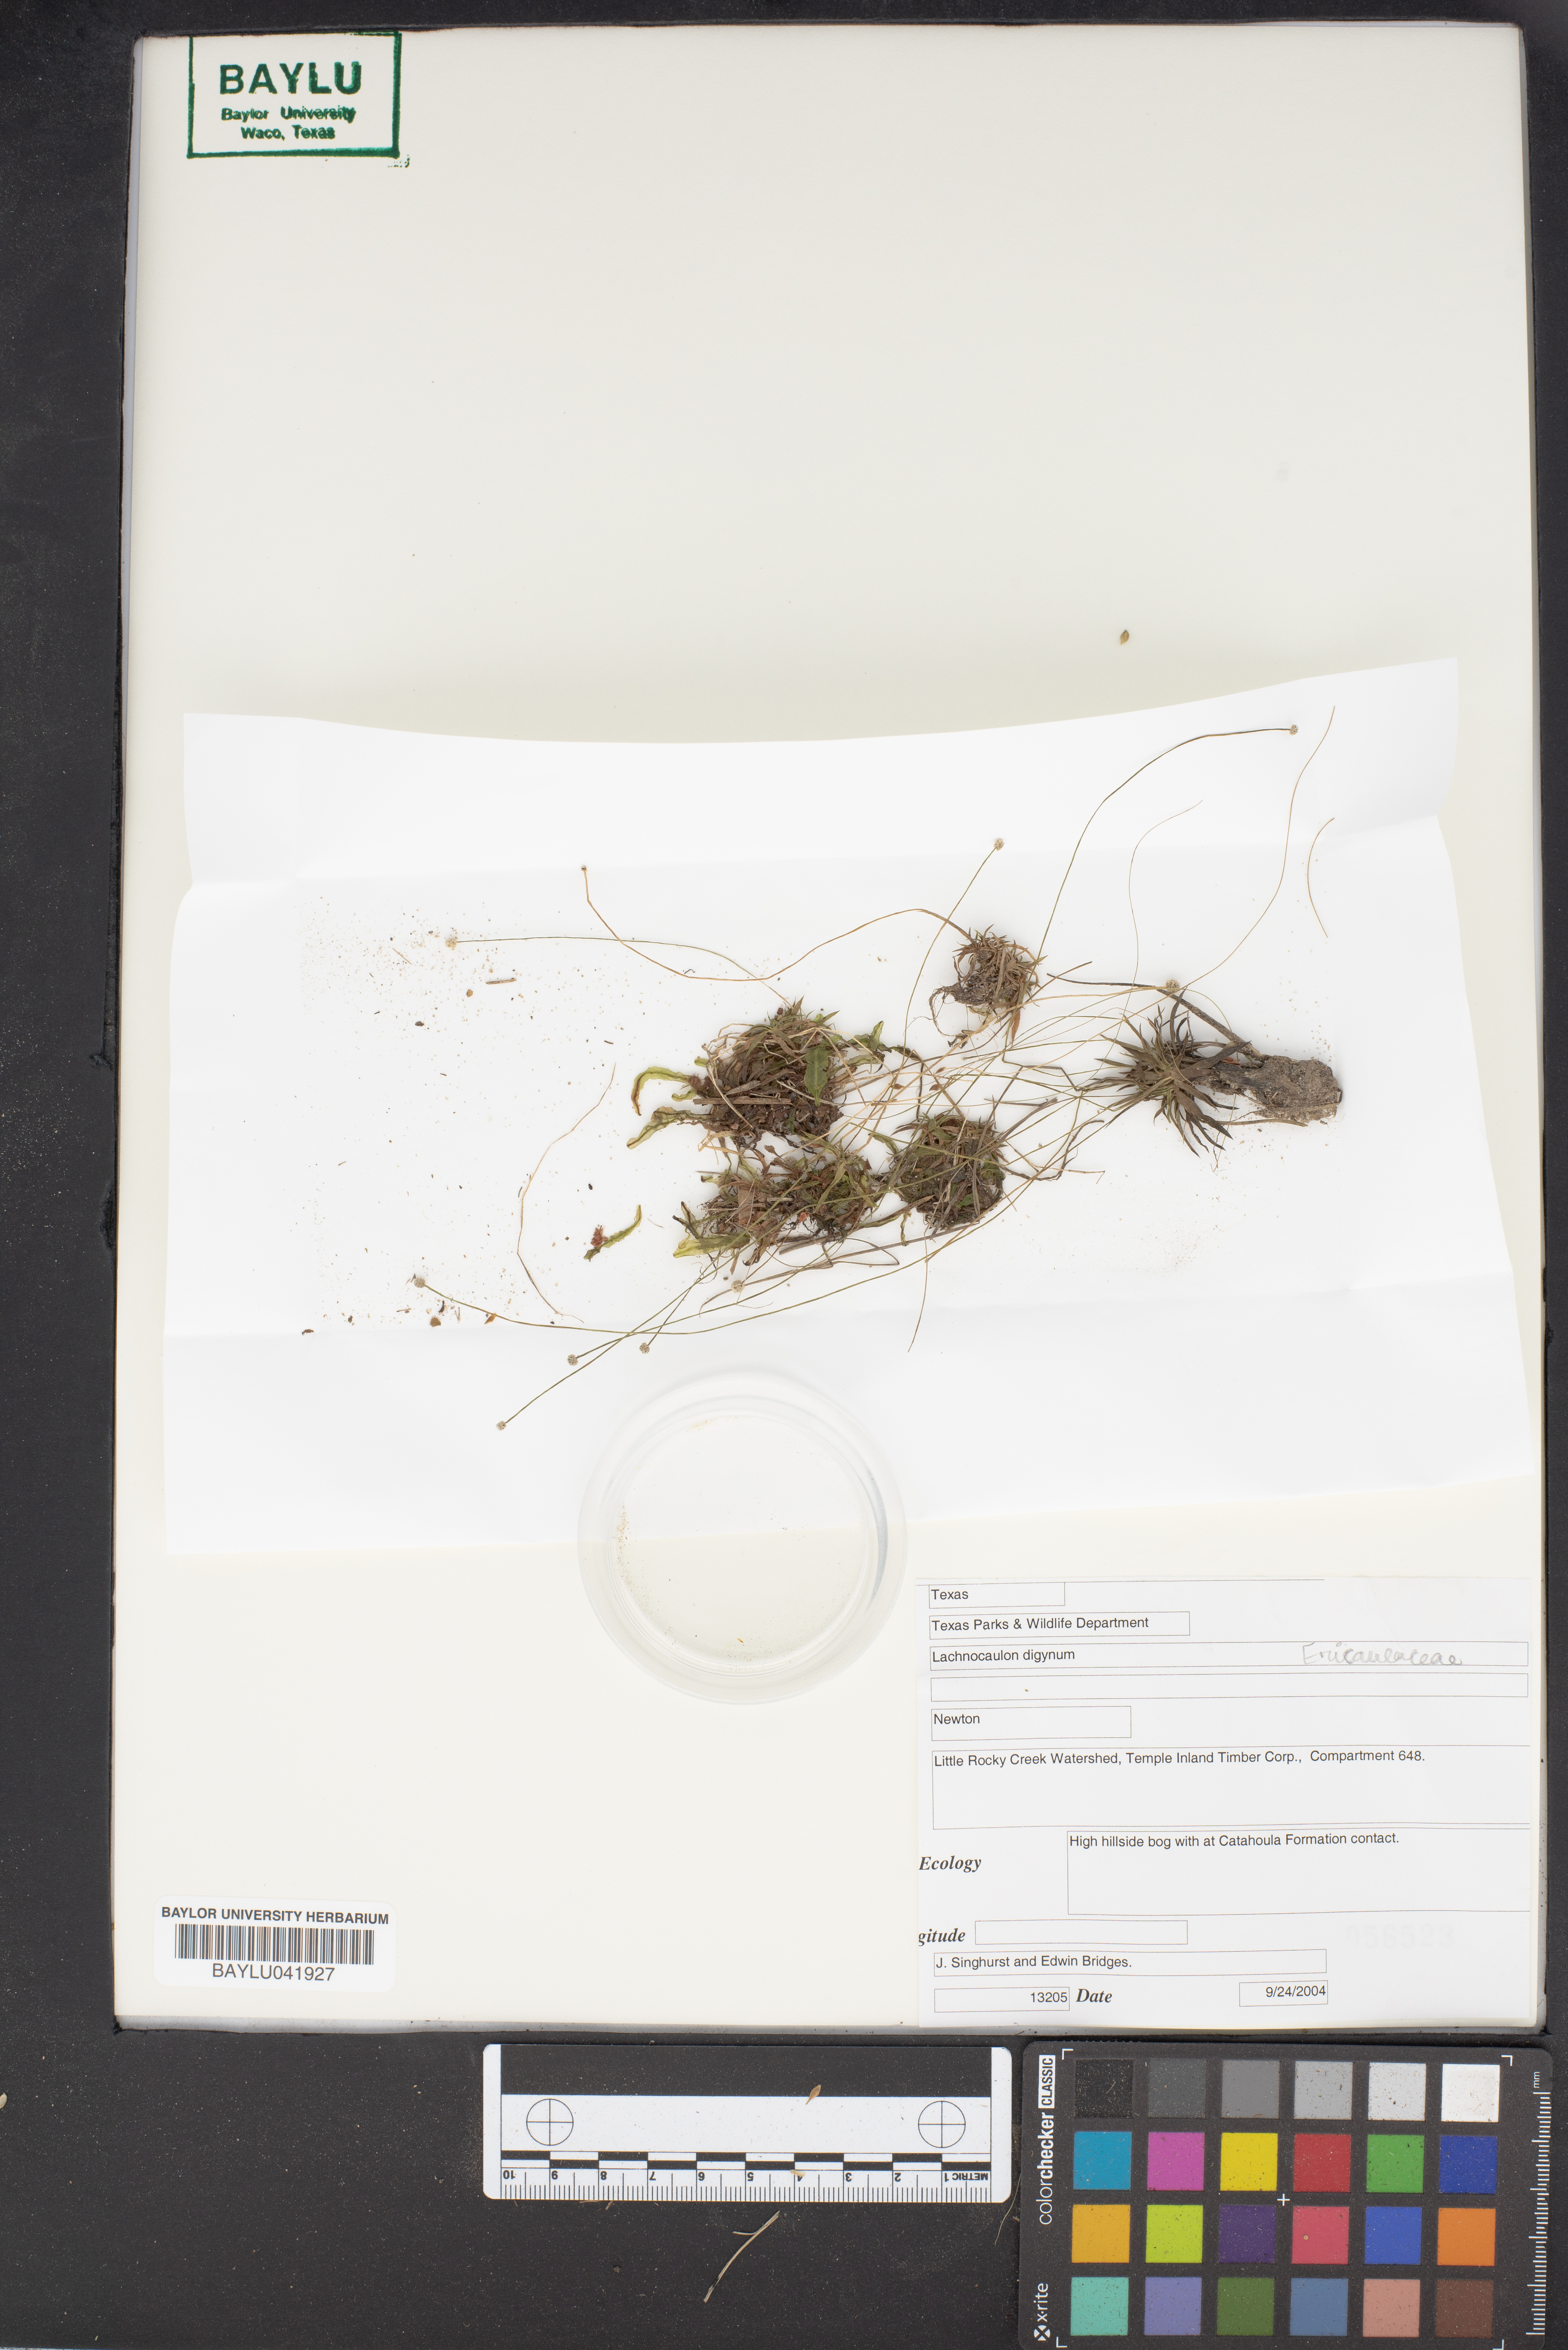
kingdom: Plantae
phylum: Tracheophyta
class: Liliopsida
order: Poales
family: Eriocaulaceae
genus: Paepalanthus
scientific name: Paepalanthus digynus
